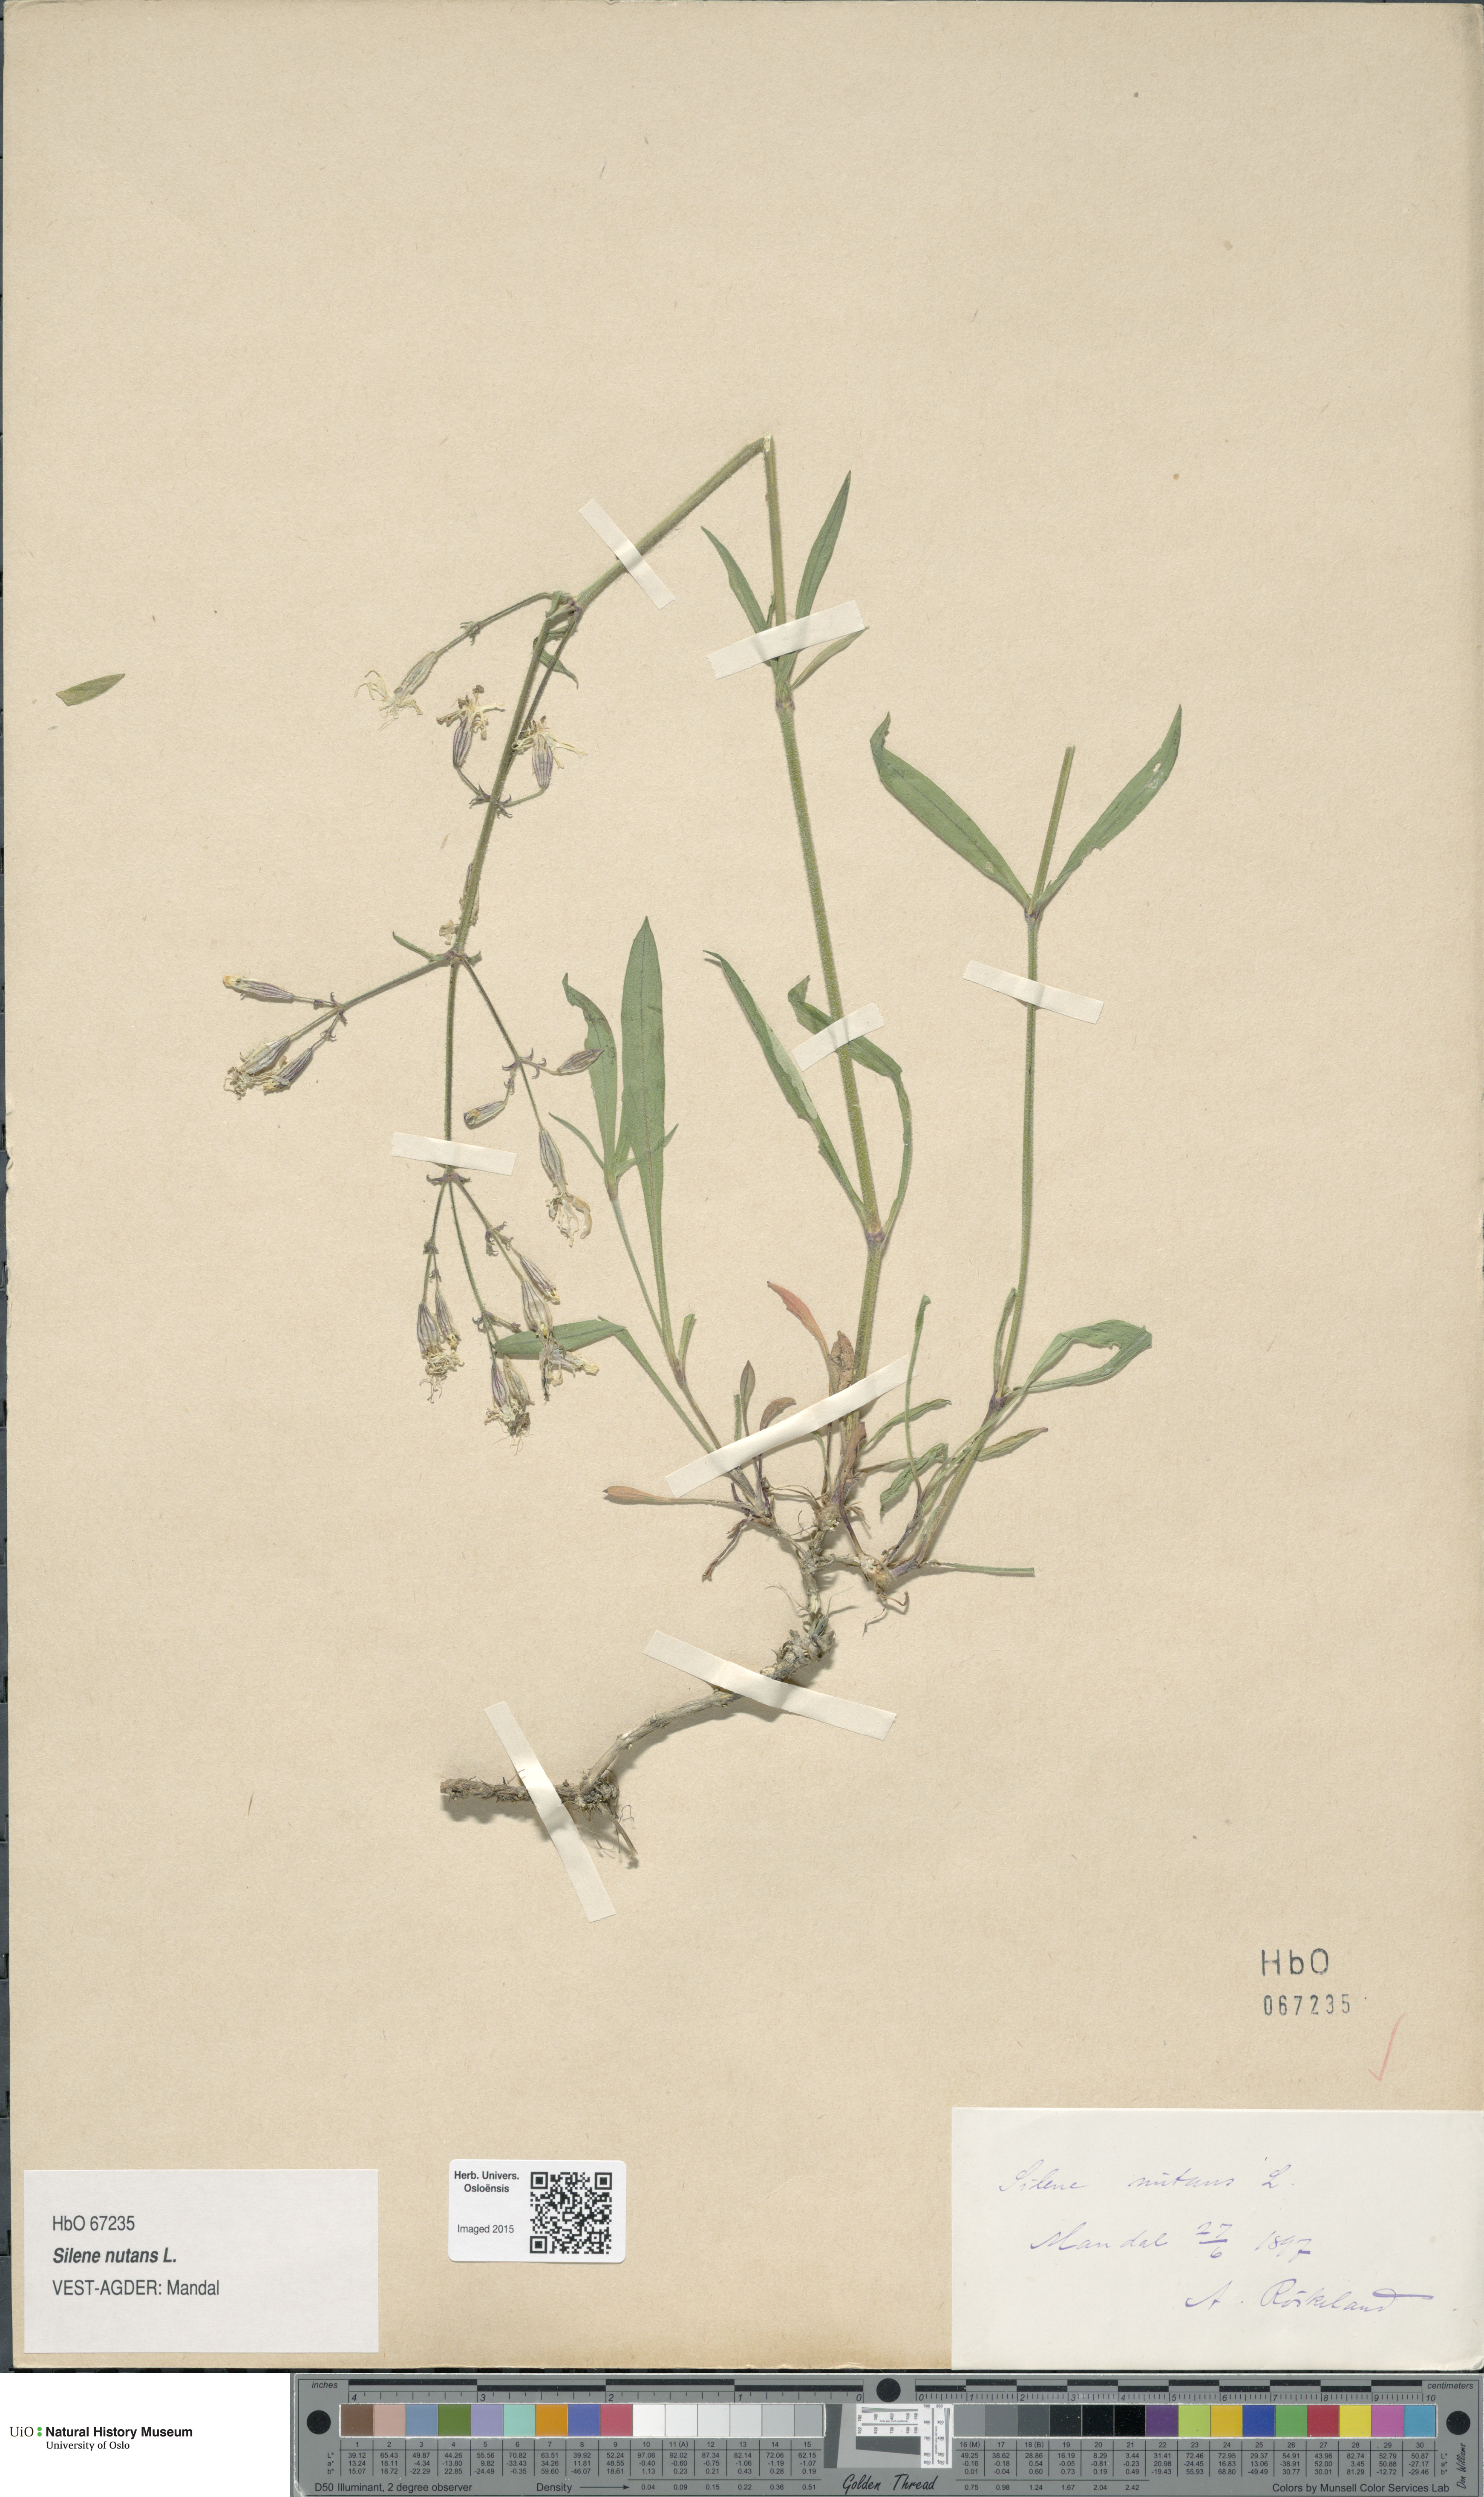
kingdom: Plantae
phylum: Tracheophyta
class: Magnoliopsida
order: Caryophyllales
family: Caryophyllaceae
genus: Silene
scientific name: Silene nutans
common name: Nottingham catchfly
